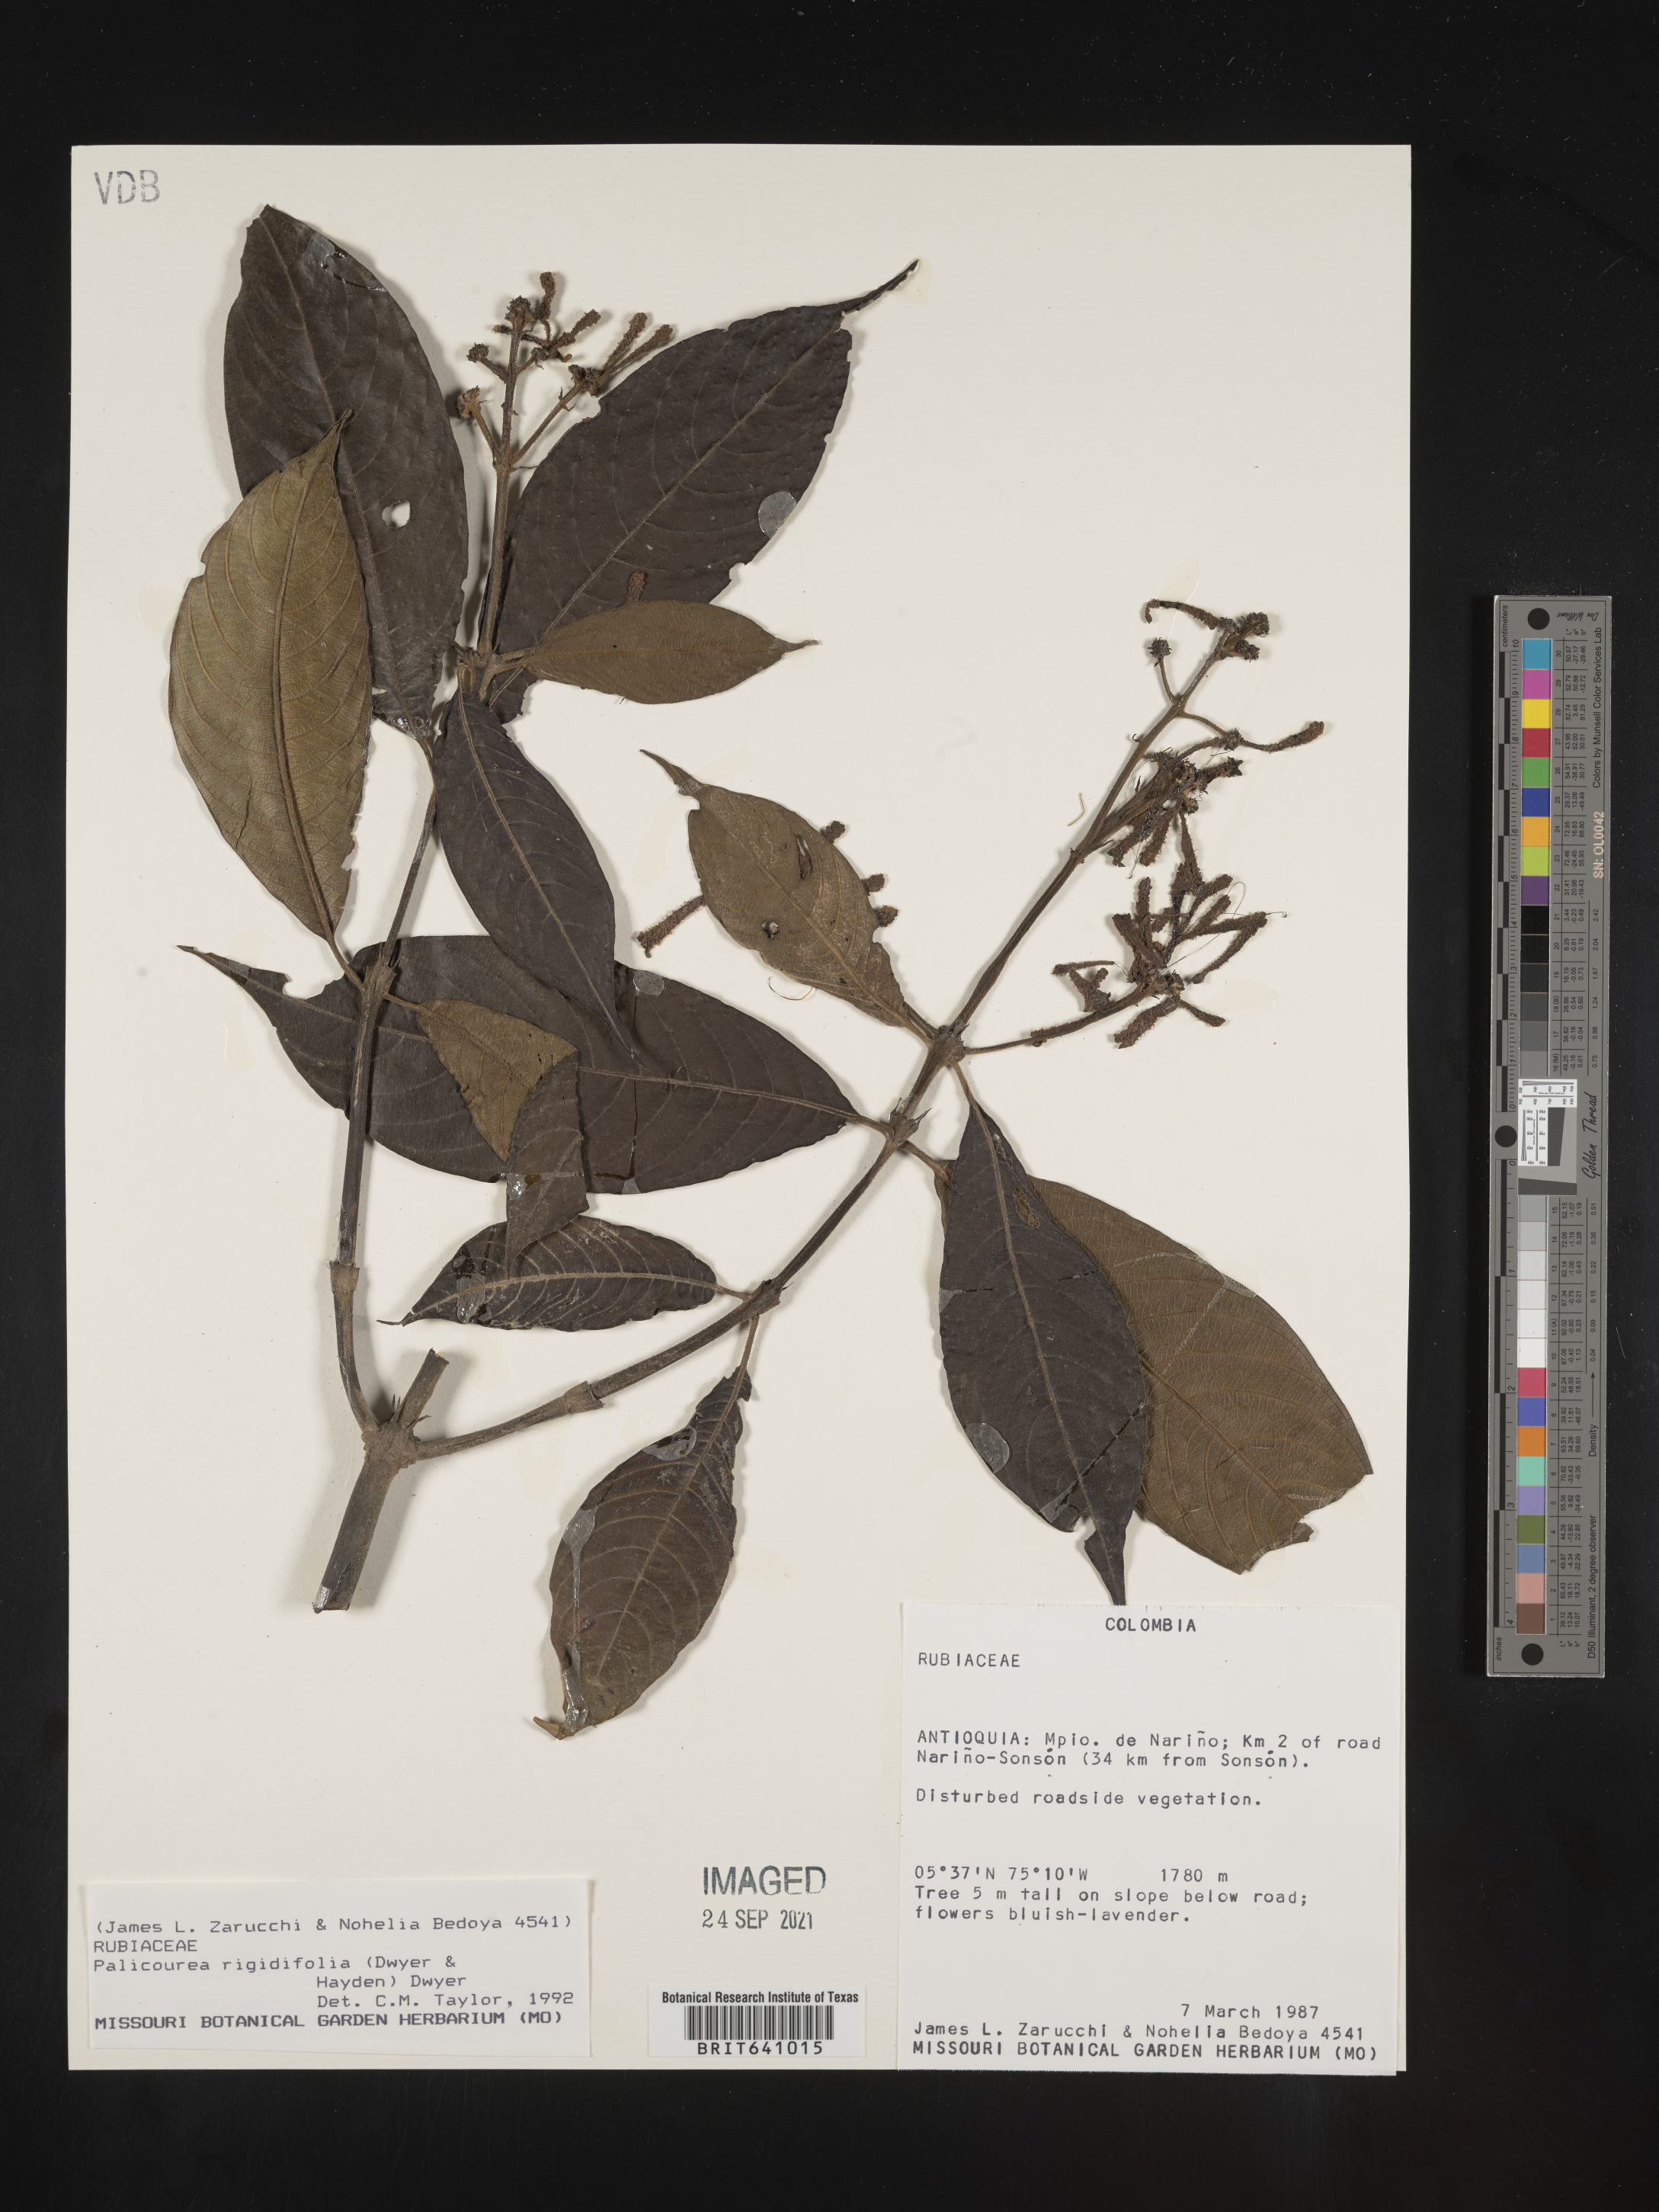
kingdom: Plantae
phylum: Tracheophyta
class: Magnoliopsida
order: Gentianales
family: Rubiaceae
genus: Palicourea
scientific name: Palicourea
